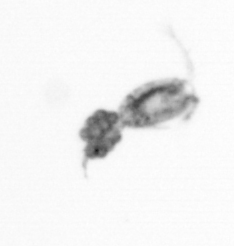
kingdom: Animalia
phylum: Arthropoda
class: Copepoda
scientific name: Copepoda
